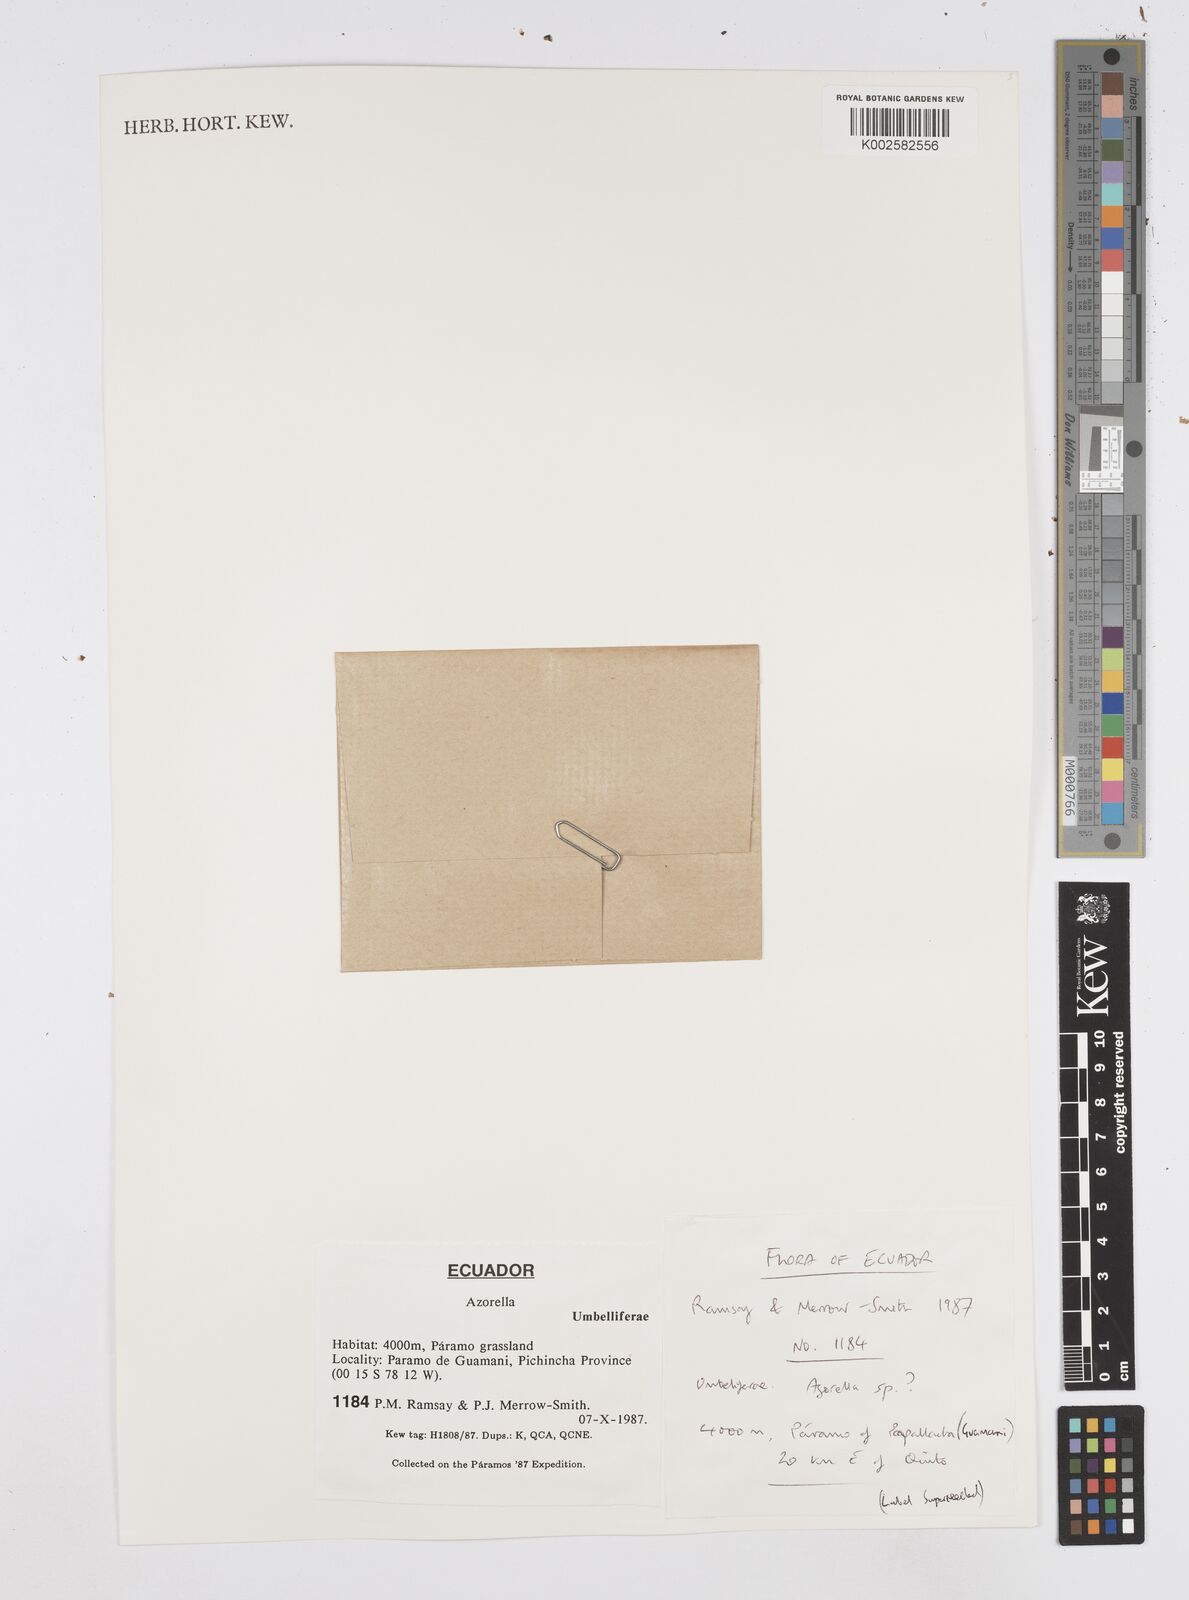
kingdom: Plantae
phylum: Tracheophyta
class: Magnoliopsida
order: Apiales
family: Apiaceae
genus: Azorella
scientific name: Azorella
